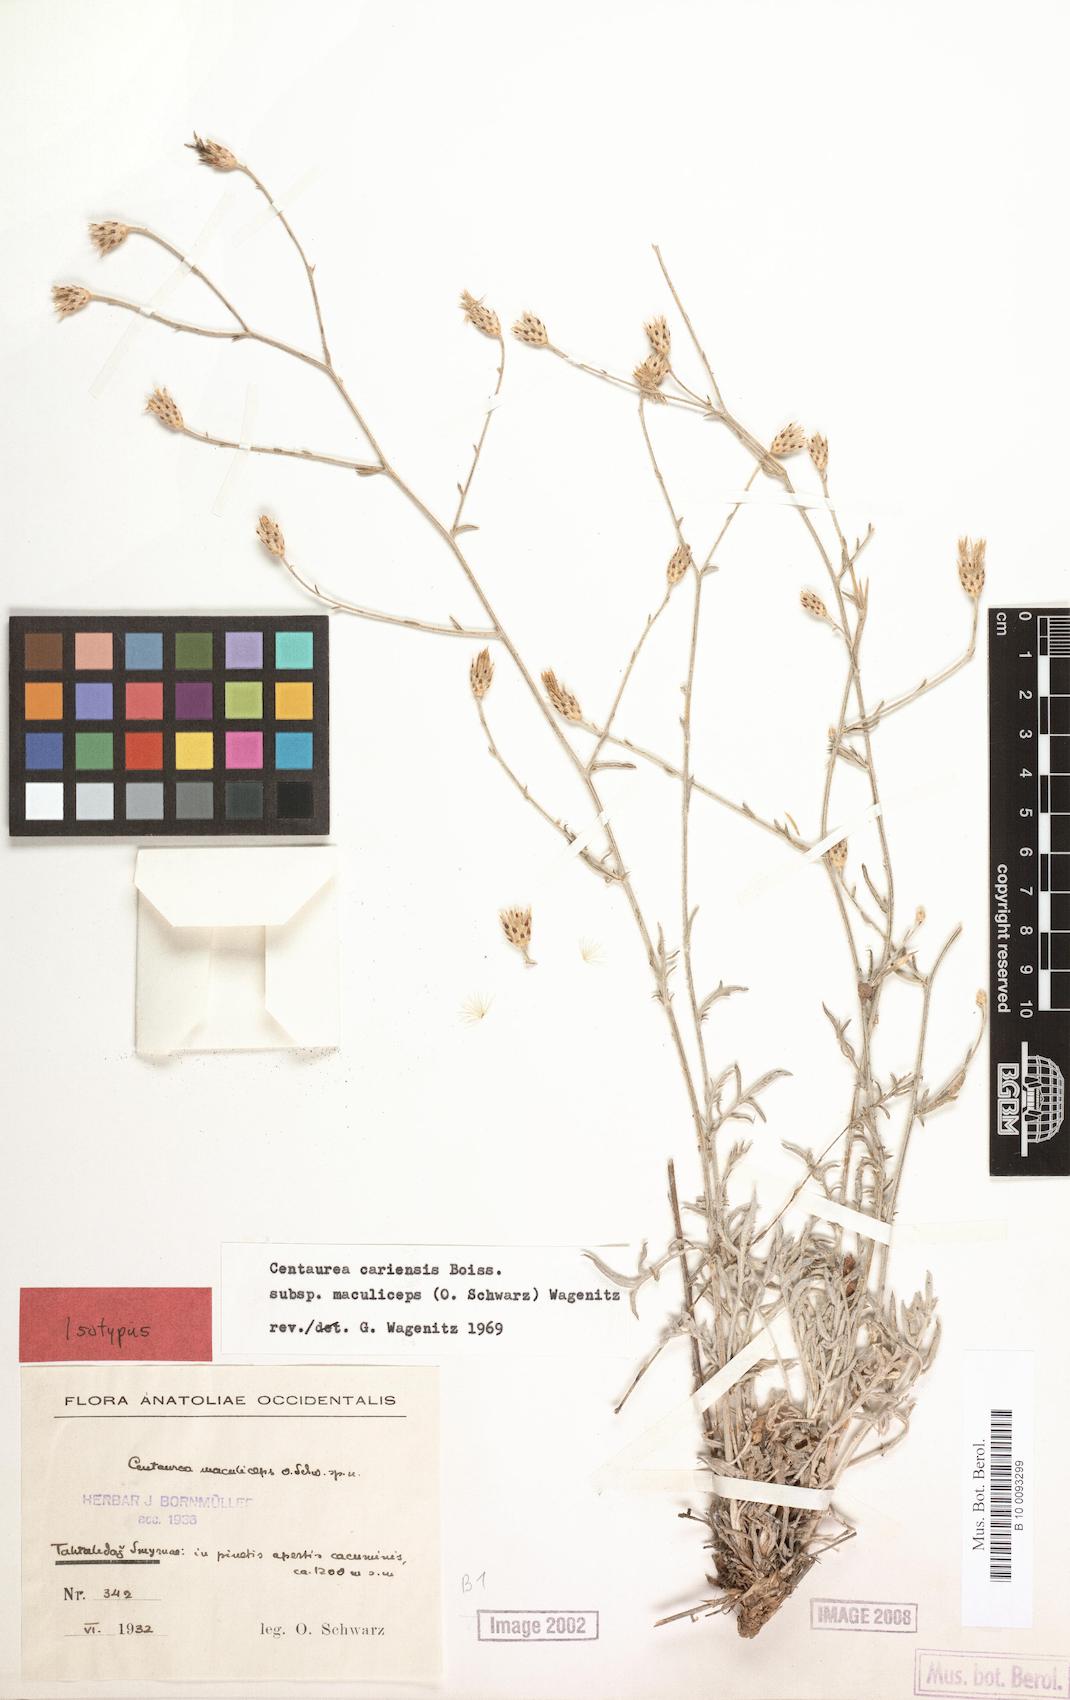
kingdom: Plantae
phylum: Tracheophyta
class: Magnoliopsida
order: Asterales
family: Asteraceae
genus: Centaurea
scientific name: Centaurea cariensis
